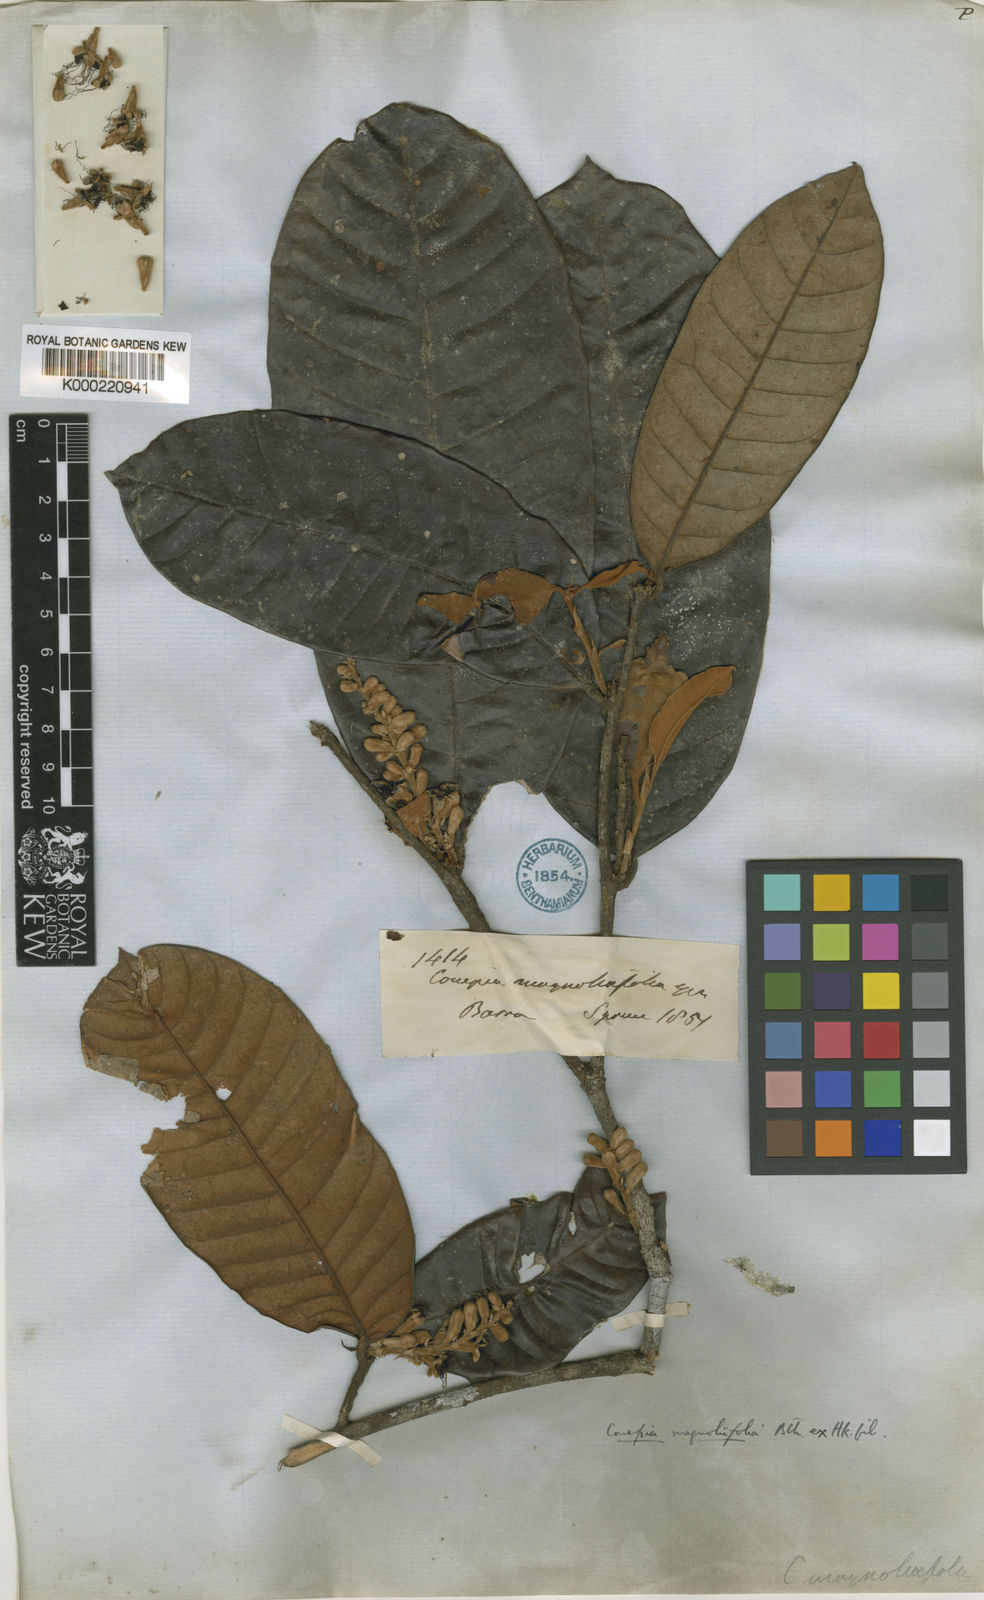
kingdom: Plantae
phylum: Tracheophyta
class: Magnoliopsida
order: Malpighiales
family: Chrysobalanaceae
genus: Couepia
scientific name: Couepia magnoliifolia
